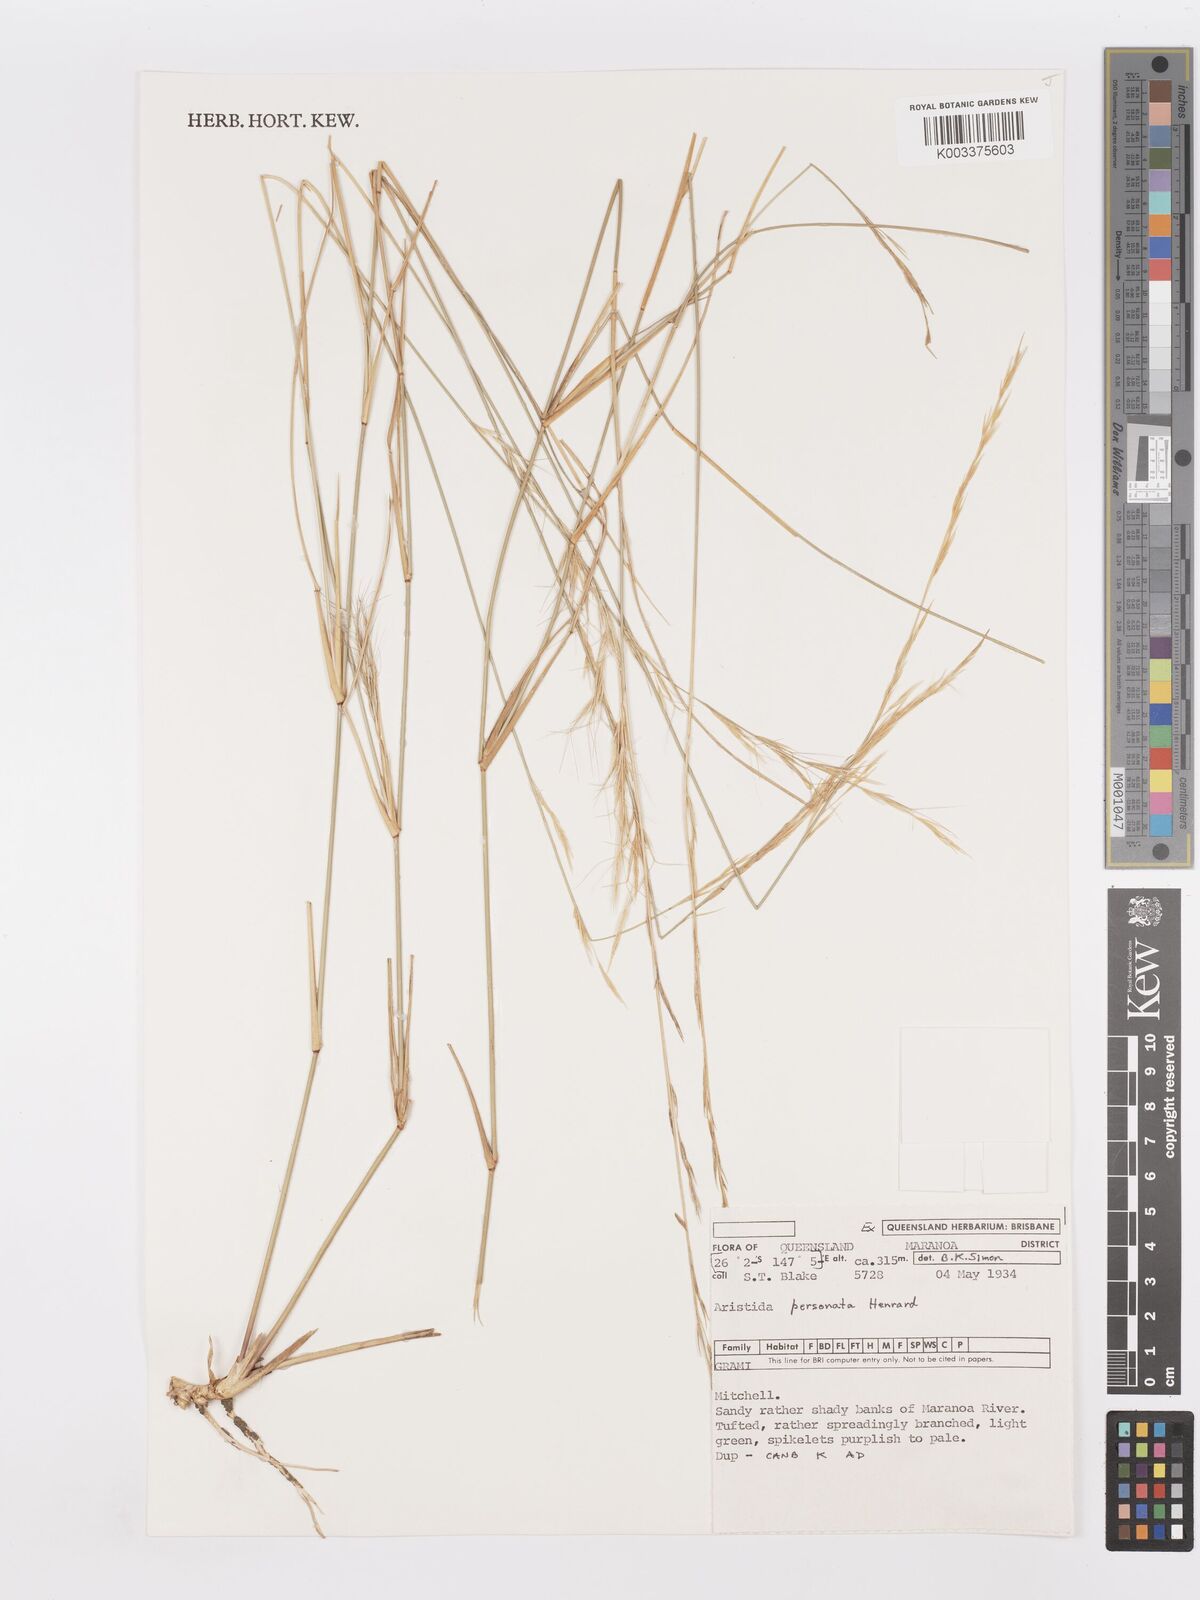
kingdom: Plantae
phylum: Tracheophyta
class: Liliopsida
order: Poales
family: Poaceae
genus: Aristida
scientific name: Aristida personata
